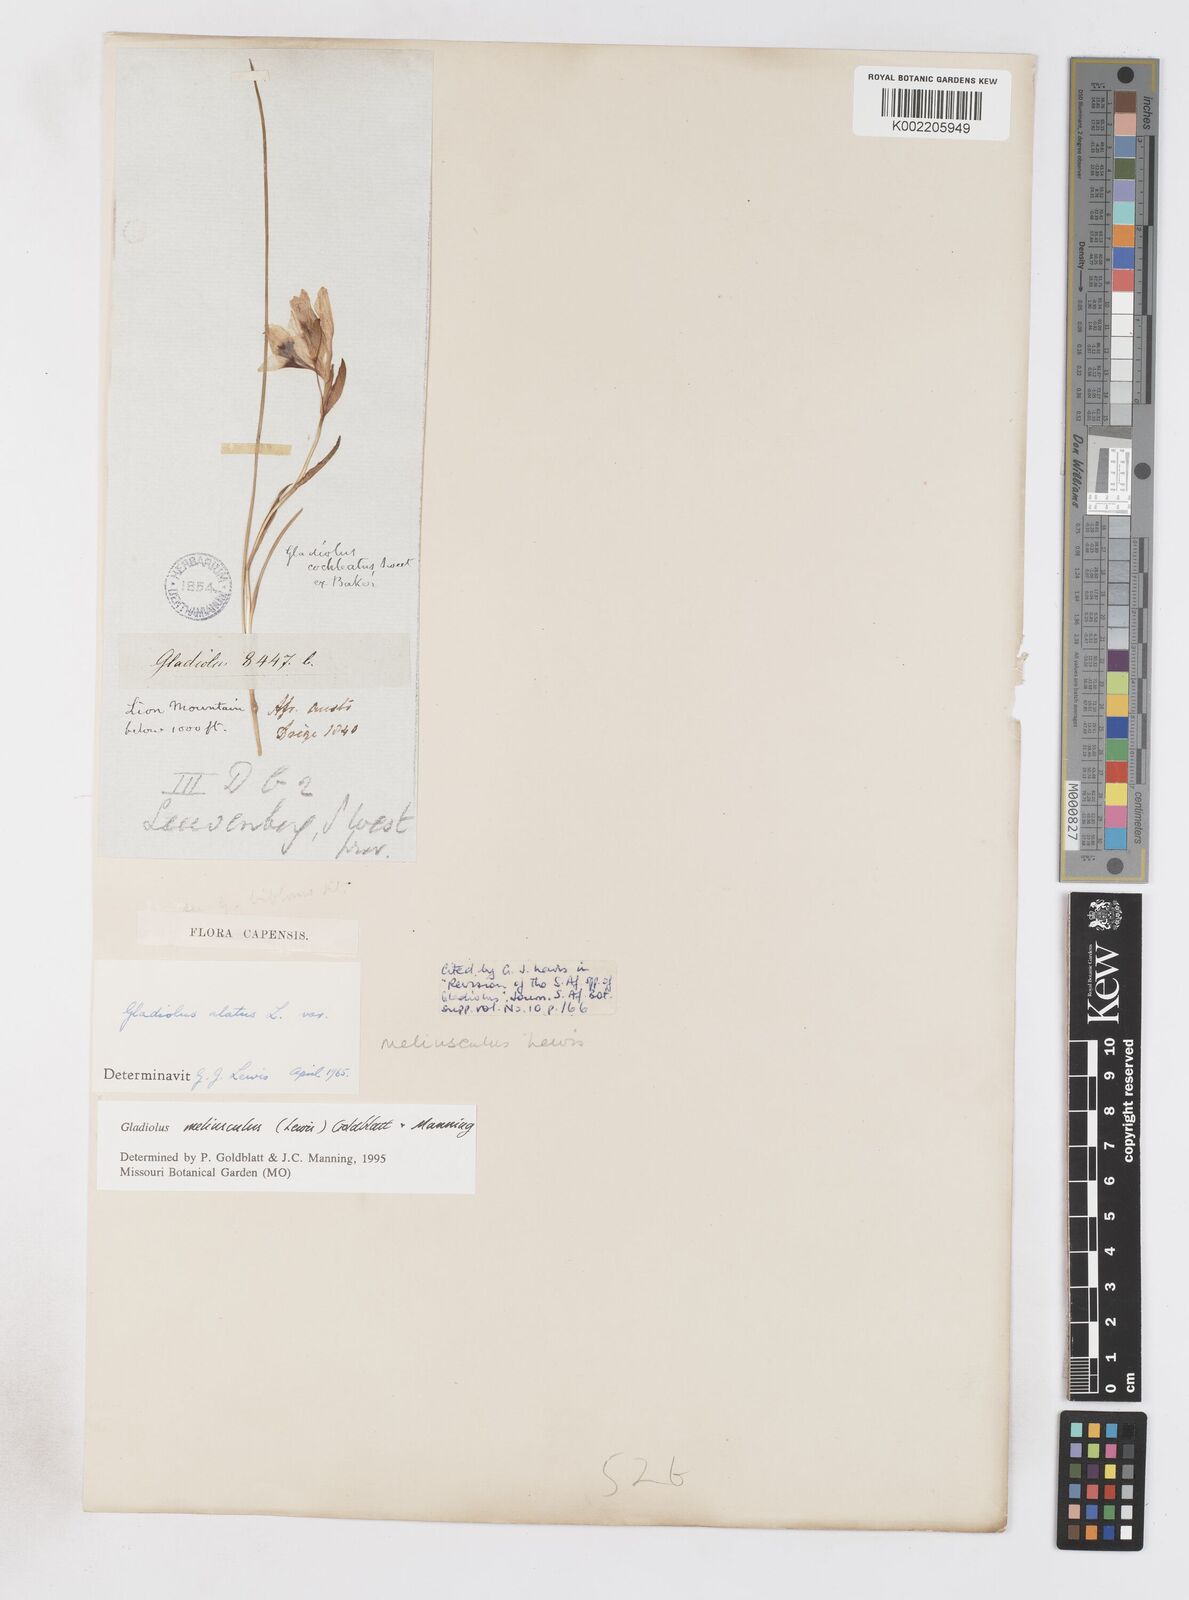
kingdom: Plantae
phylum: Tracheophyta
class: Liliopsida
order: Asparagales
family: Iridaceae
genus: Gladiolus
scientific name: Gladiolus meliusculus
